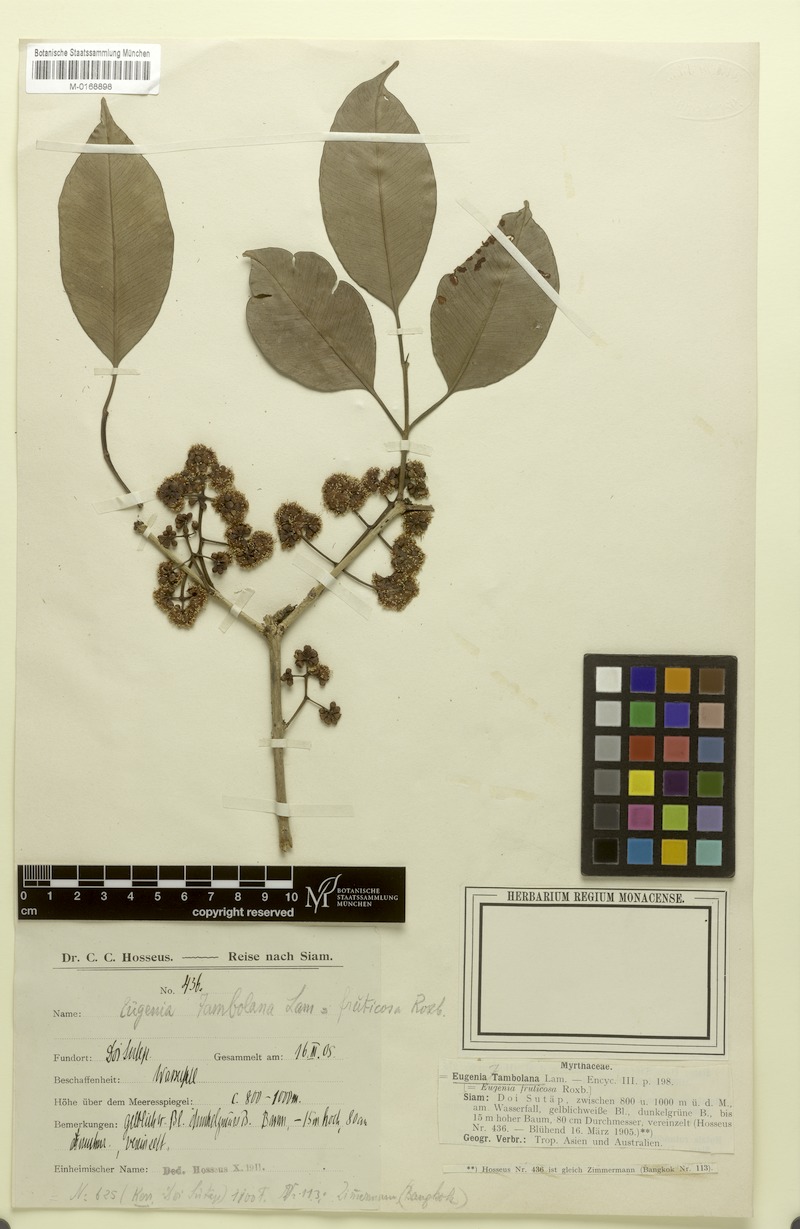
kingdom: Plantae
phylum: Tracheophyta
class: Magnoliopsida
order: Myrtales
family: Myrtaceae
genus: Syzygium
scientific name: Syzygium cumini
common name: Java plum
